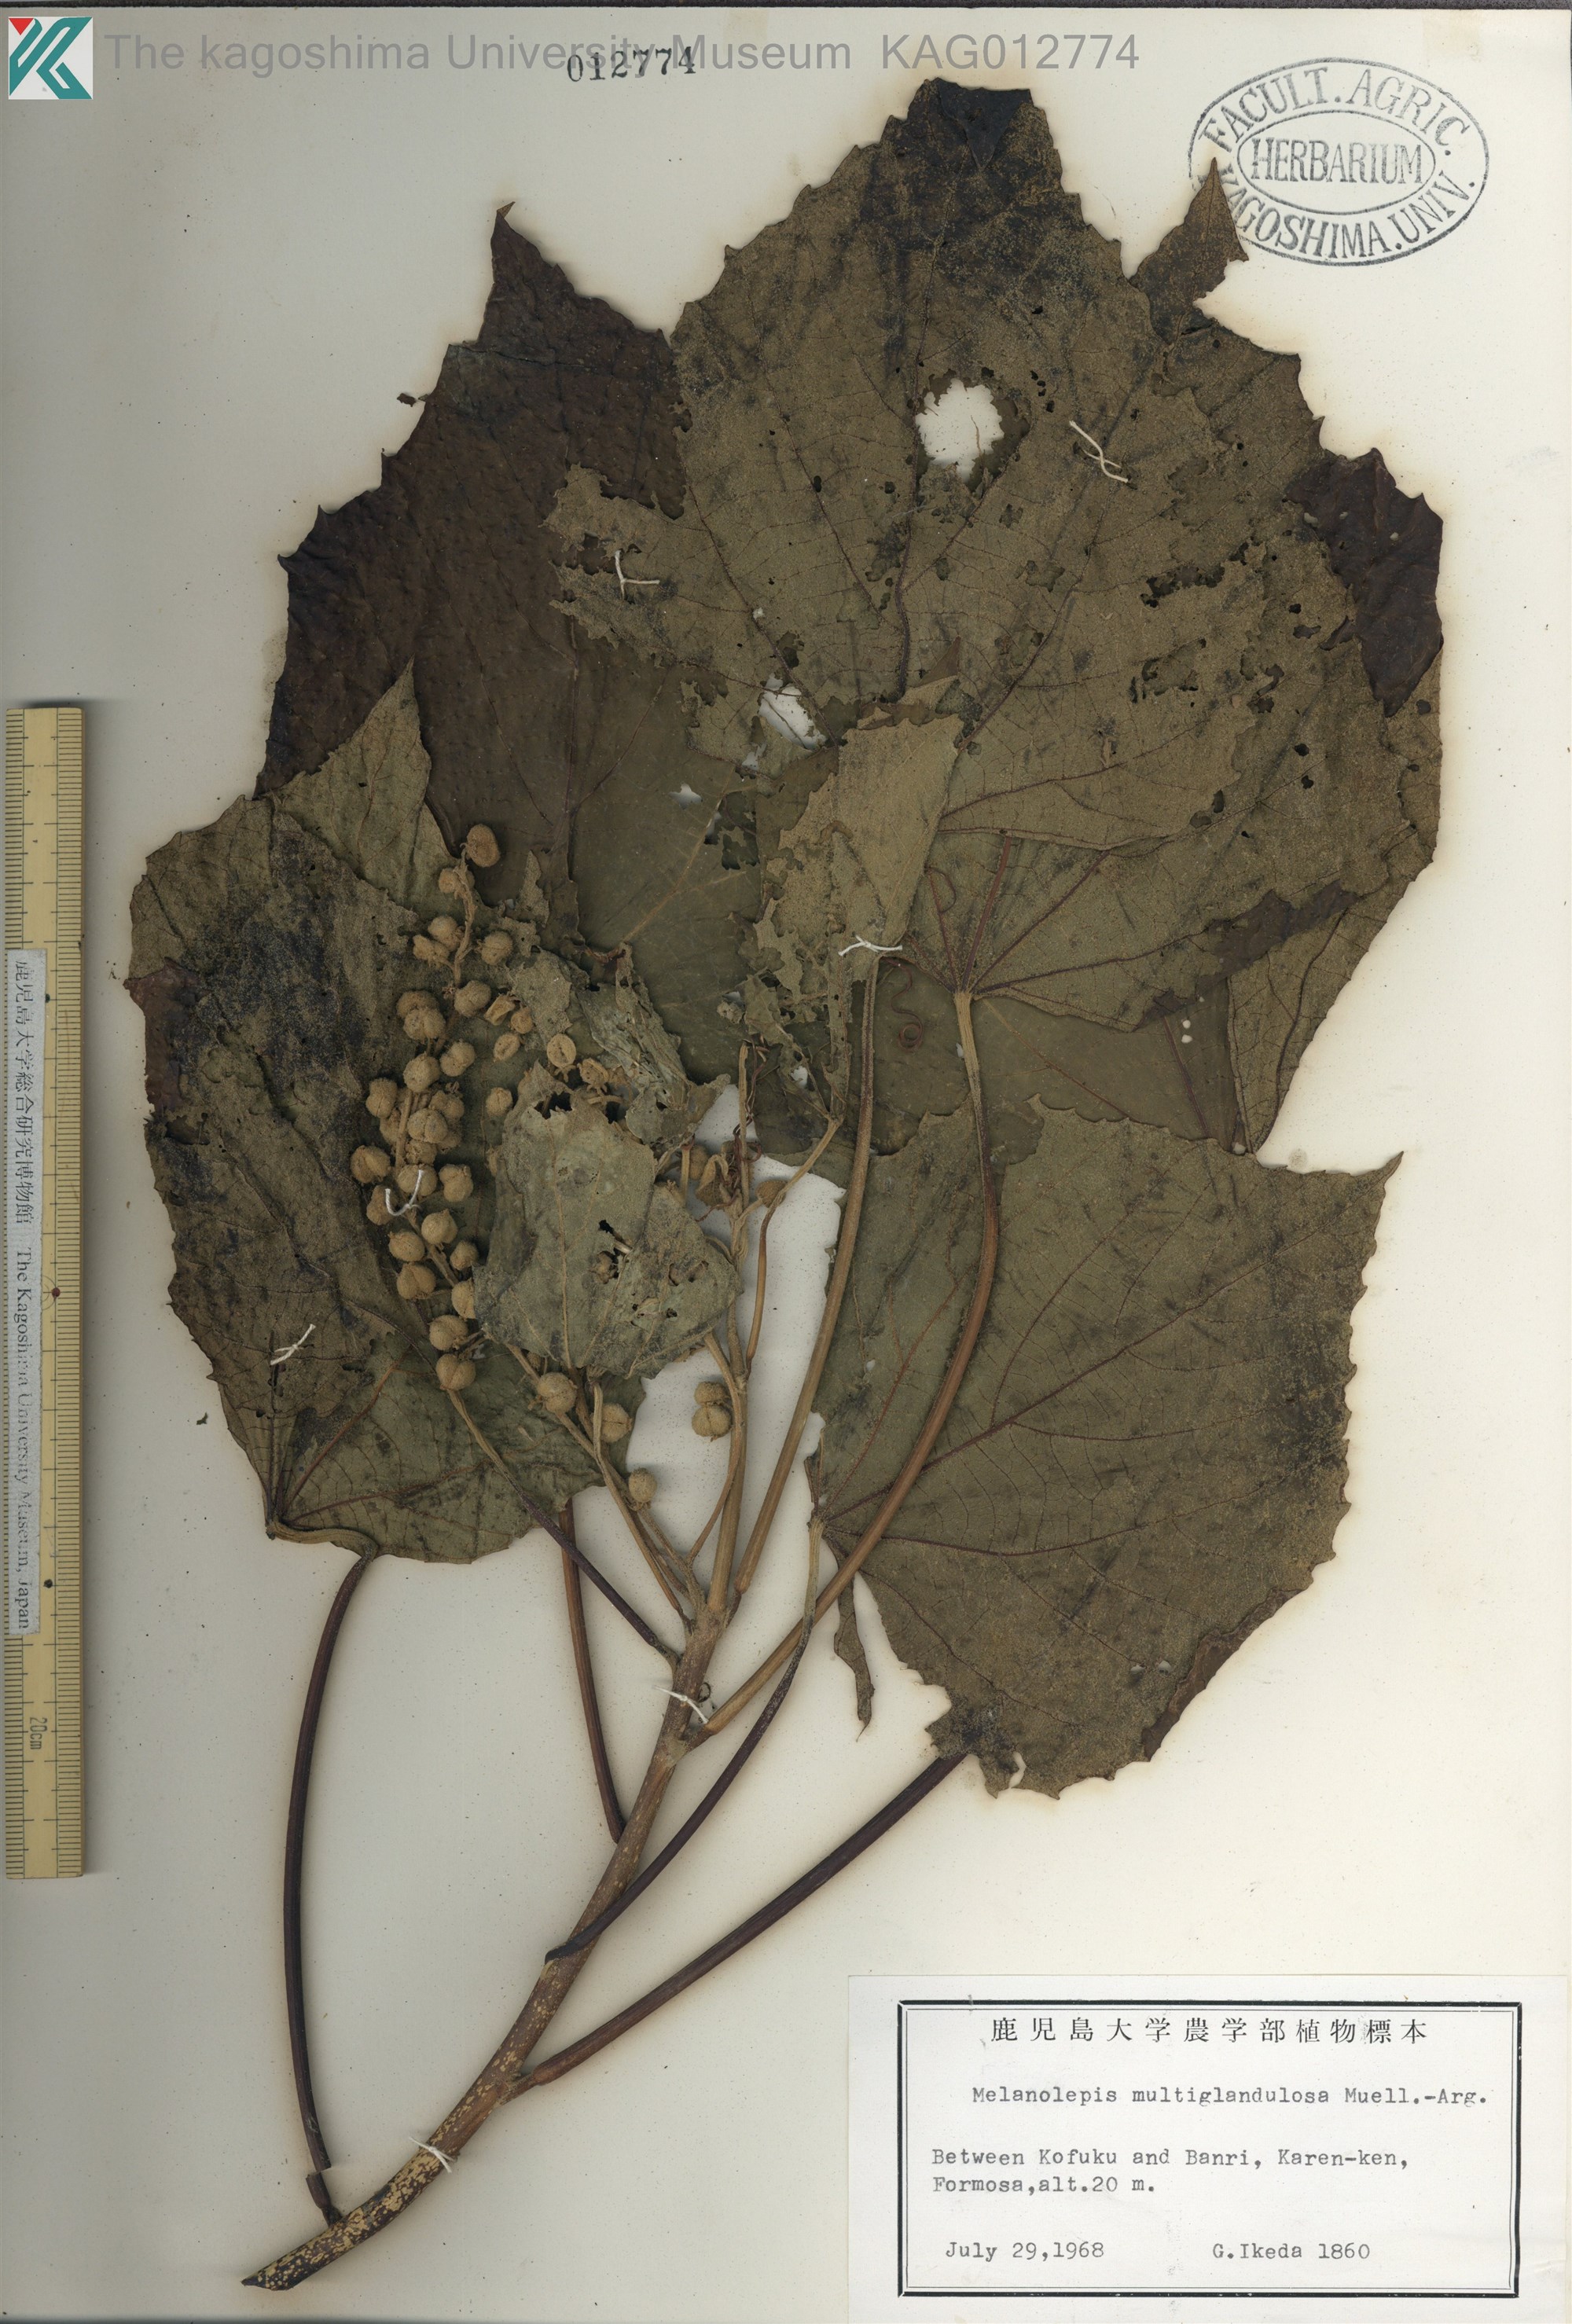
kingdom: Plantae
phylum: Tracheophyta
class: Magnoliopsida
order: Malpighiales
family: Euphorbiaceae
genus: Melanolepis
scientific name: Melanolepis multiglandulosa
